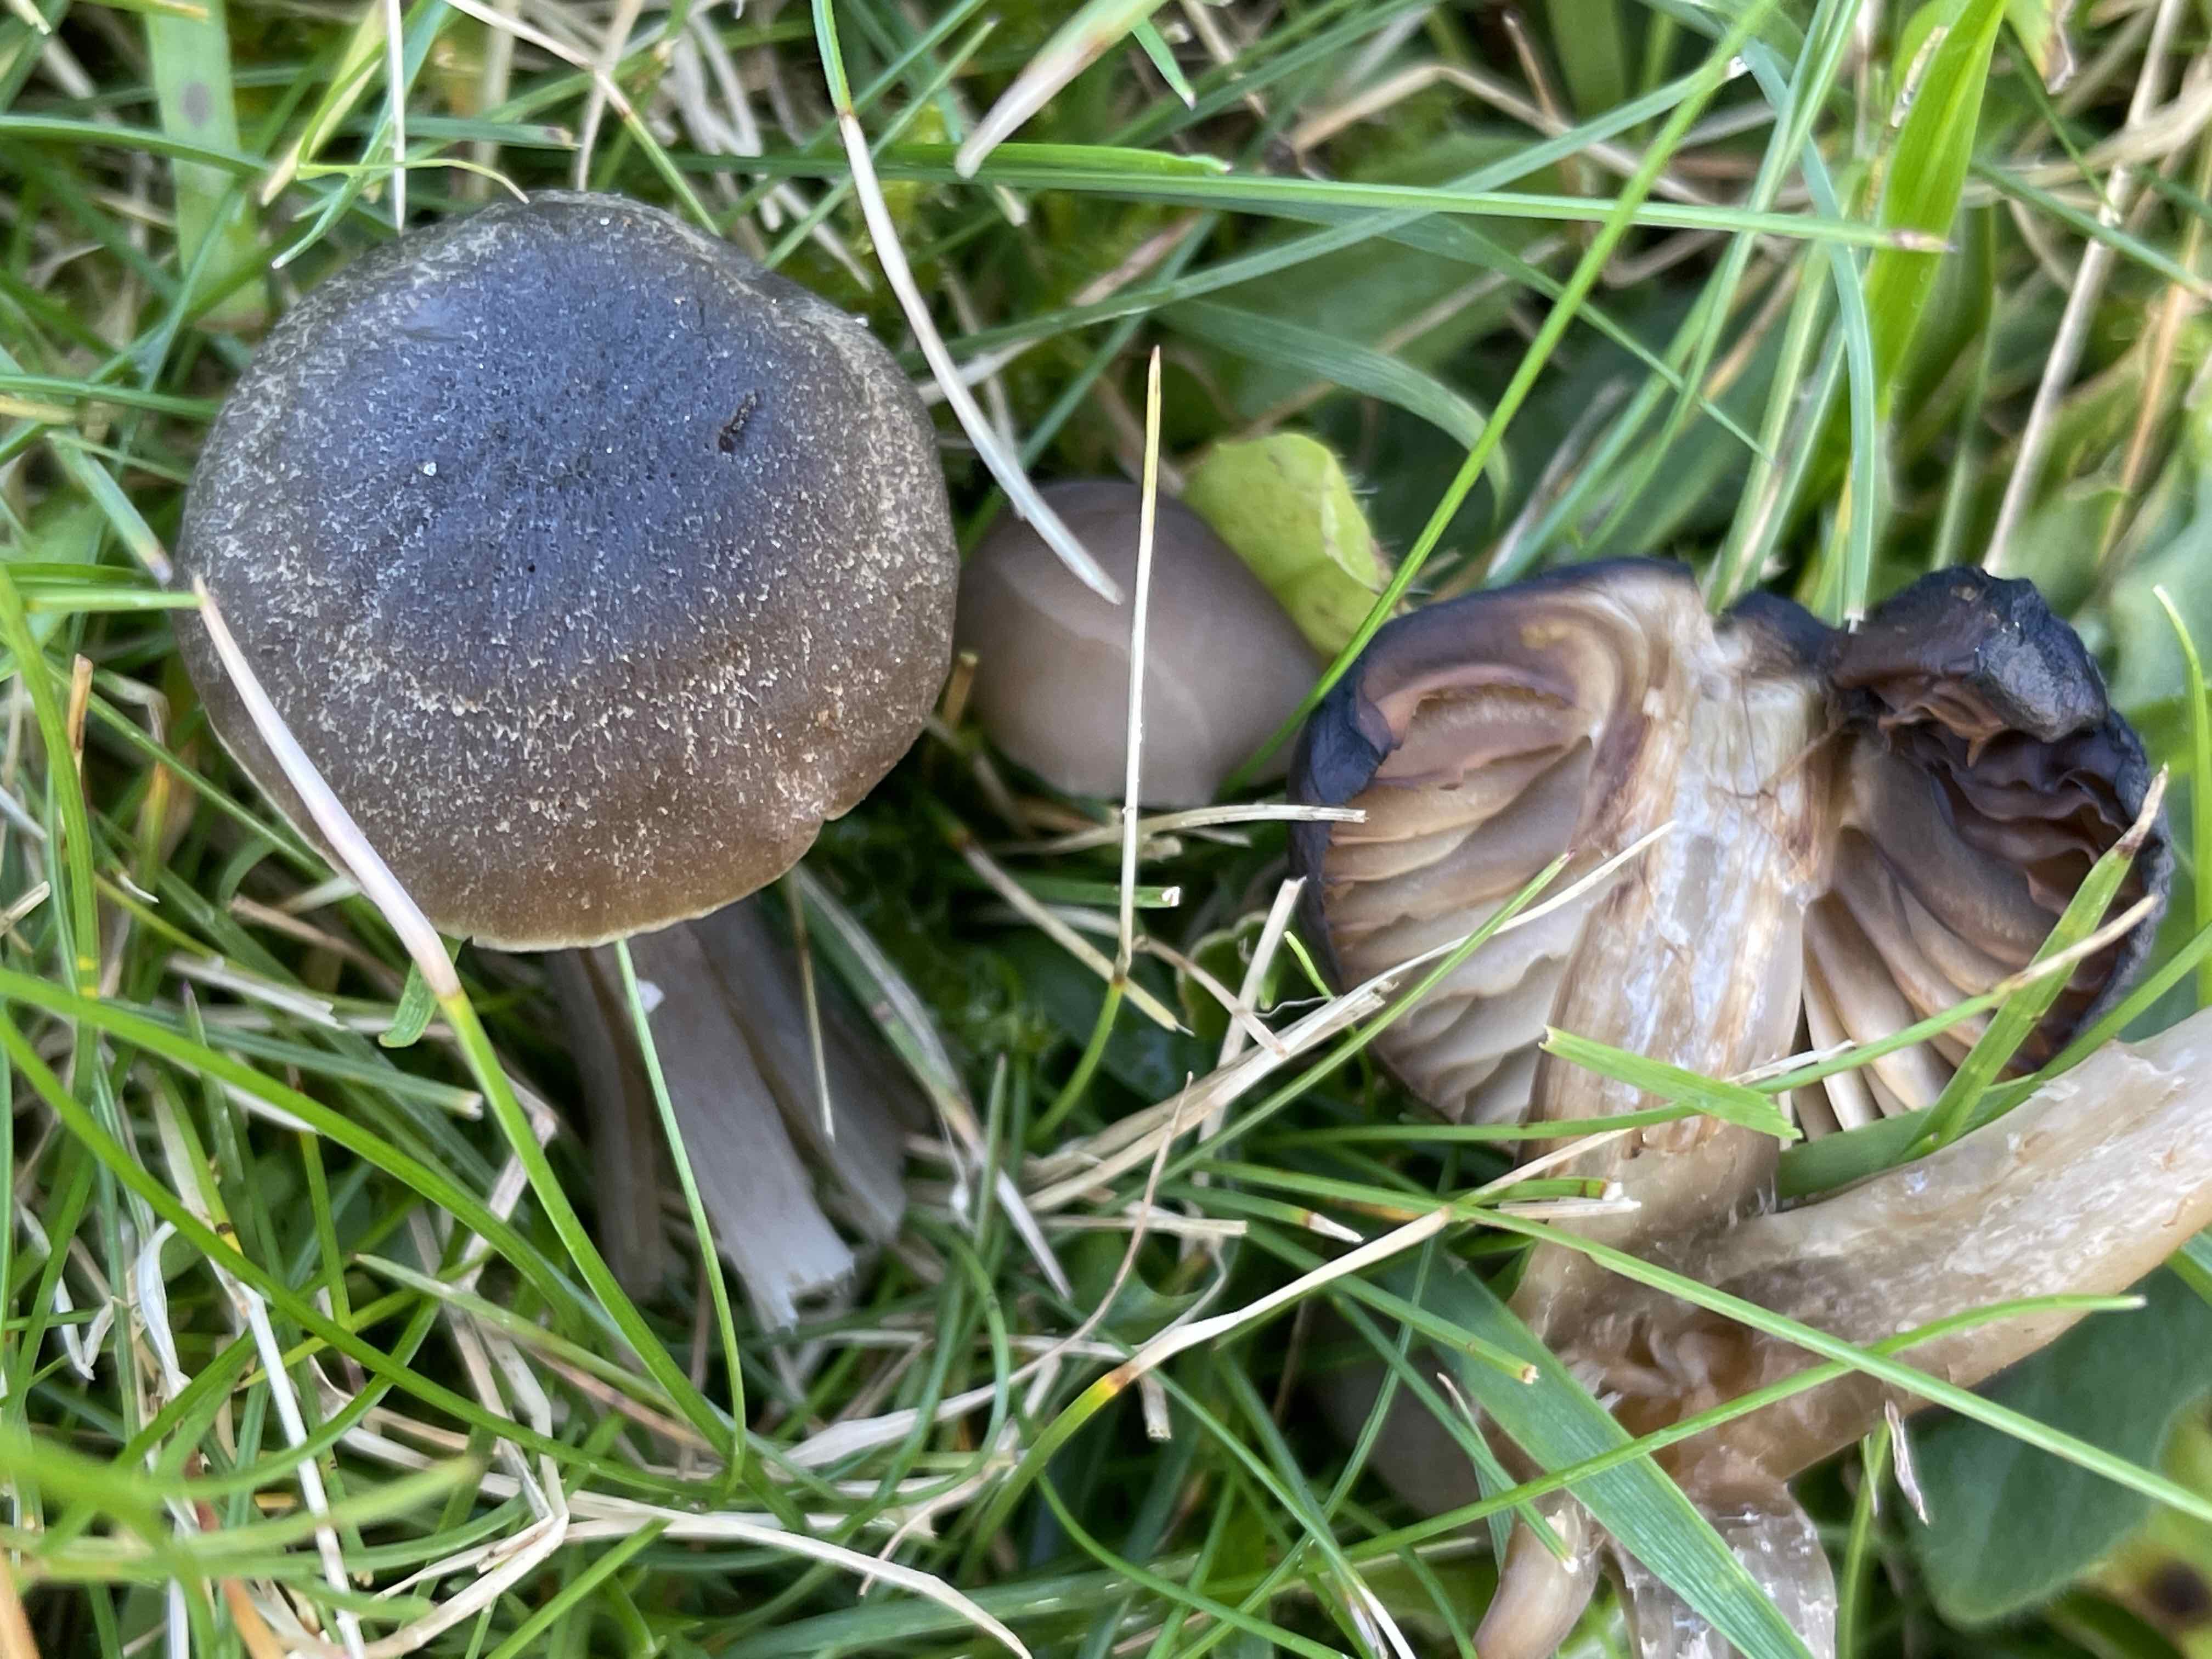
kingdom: Fungi
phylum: Basidiomycota
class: Agaricomycetes
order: Agaricales
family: Hygrophoraceae
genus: Neohygrocybe
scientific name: Neohygrocybe nitrata
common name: stinkende vokshat
